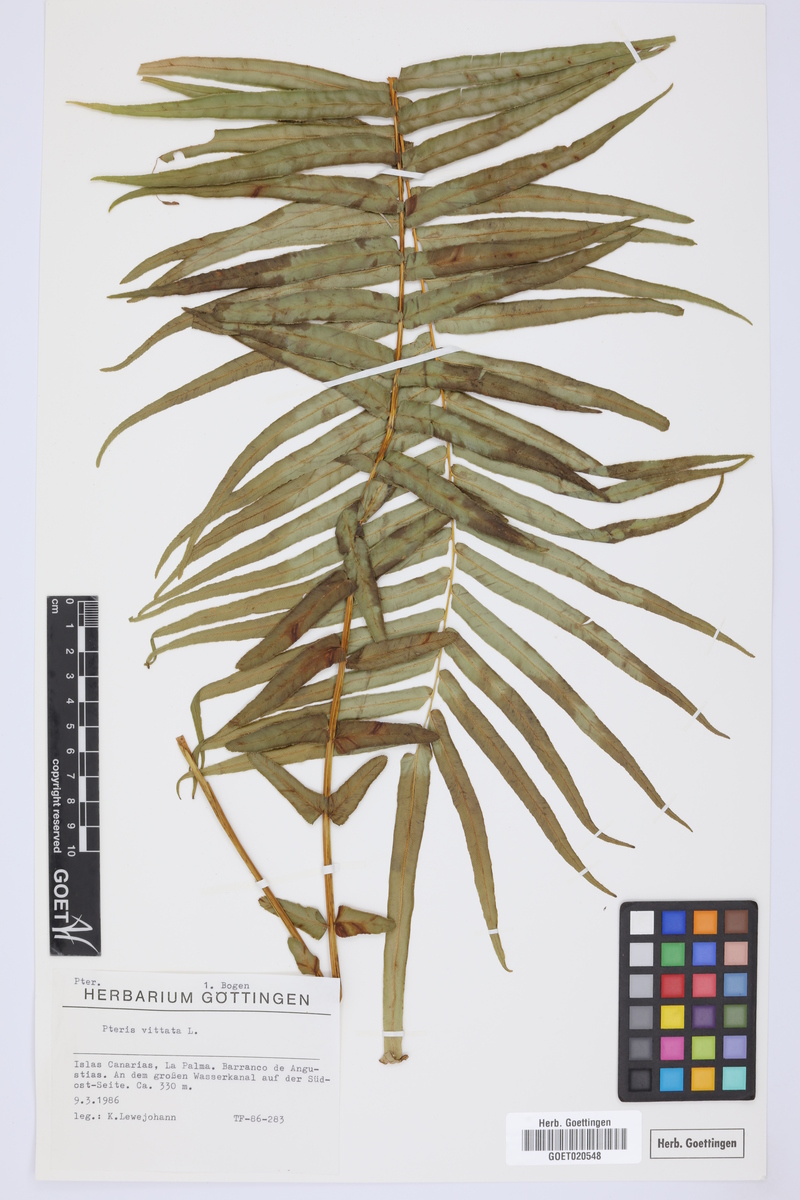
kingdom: Plantae
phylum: Tracheophyta
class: Polypodiopsida
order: Polypodiales
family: Pteridaceae
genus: Pteris
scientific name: Pteris vittata
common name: Ladder brake
